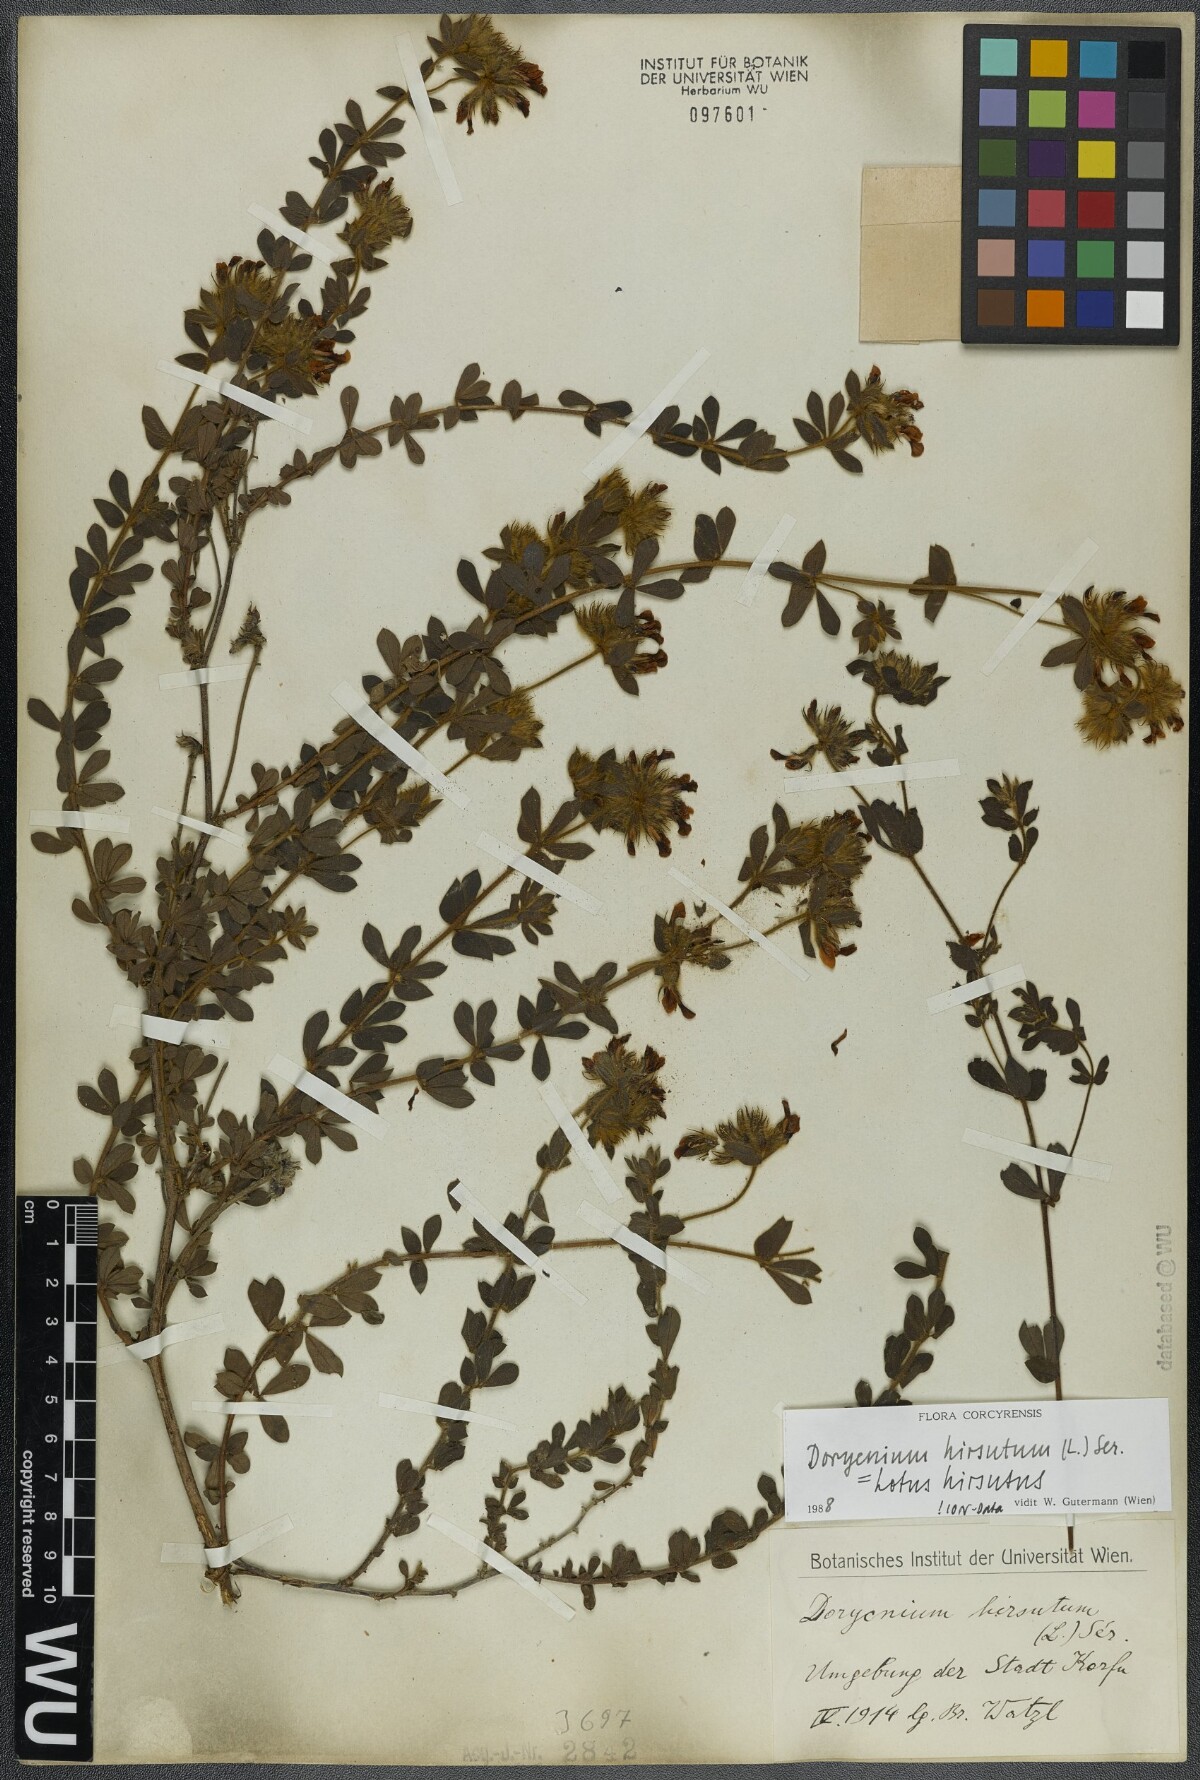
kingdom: Plantae
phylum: Tracheophyta
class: Magnoliopsida
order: Fabales
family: Fabaceae
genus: Lotus
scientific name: Lotus hirsutus
